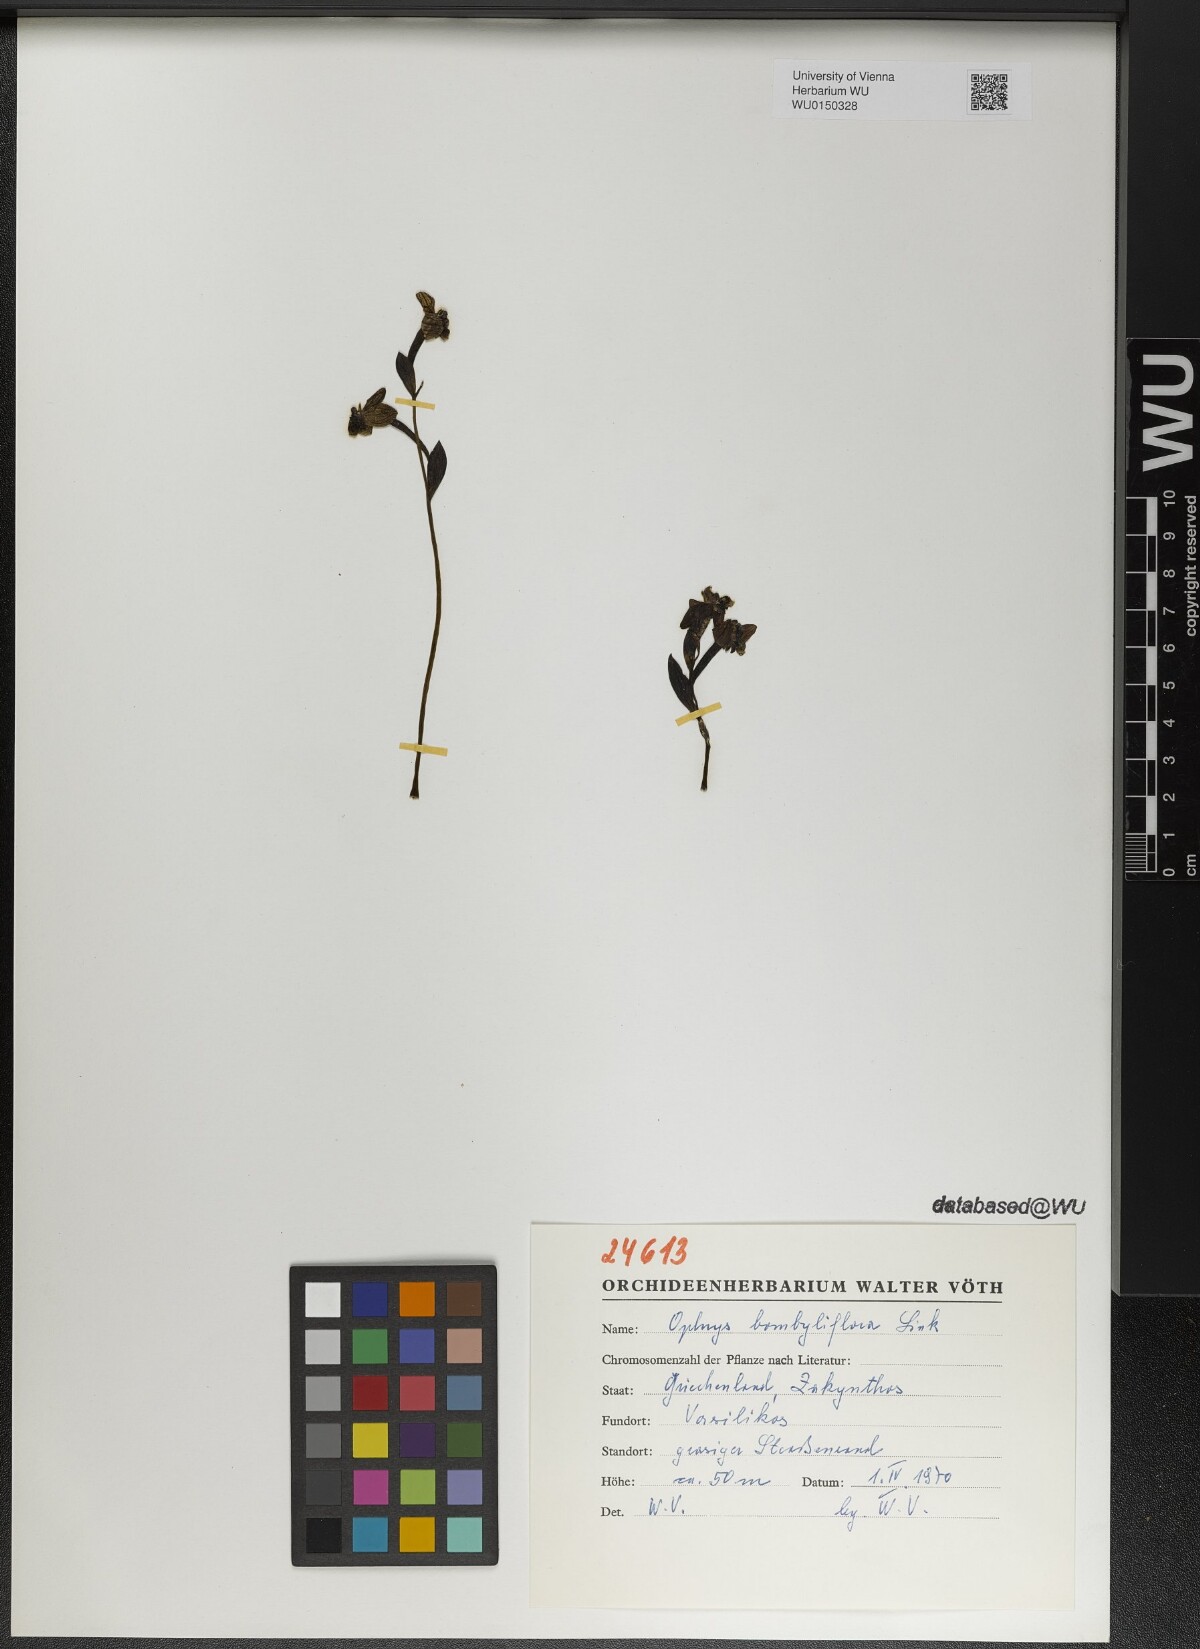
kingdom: Plantae
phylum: Tracheophyta
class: Liliopsida
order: Asparagales
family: Orchidaceae
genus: Ophrys
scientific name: Ophrys bombyliflora
